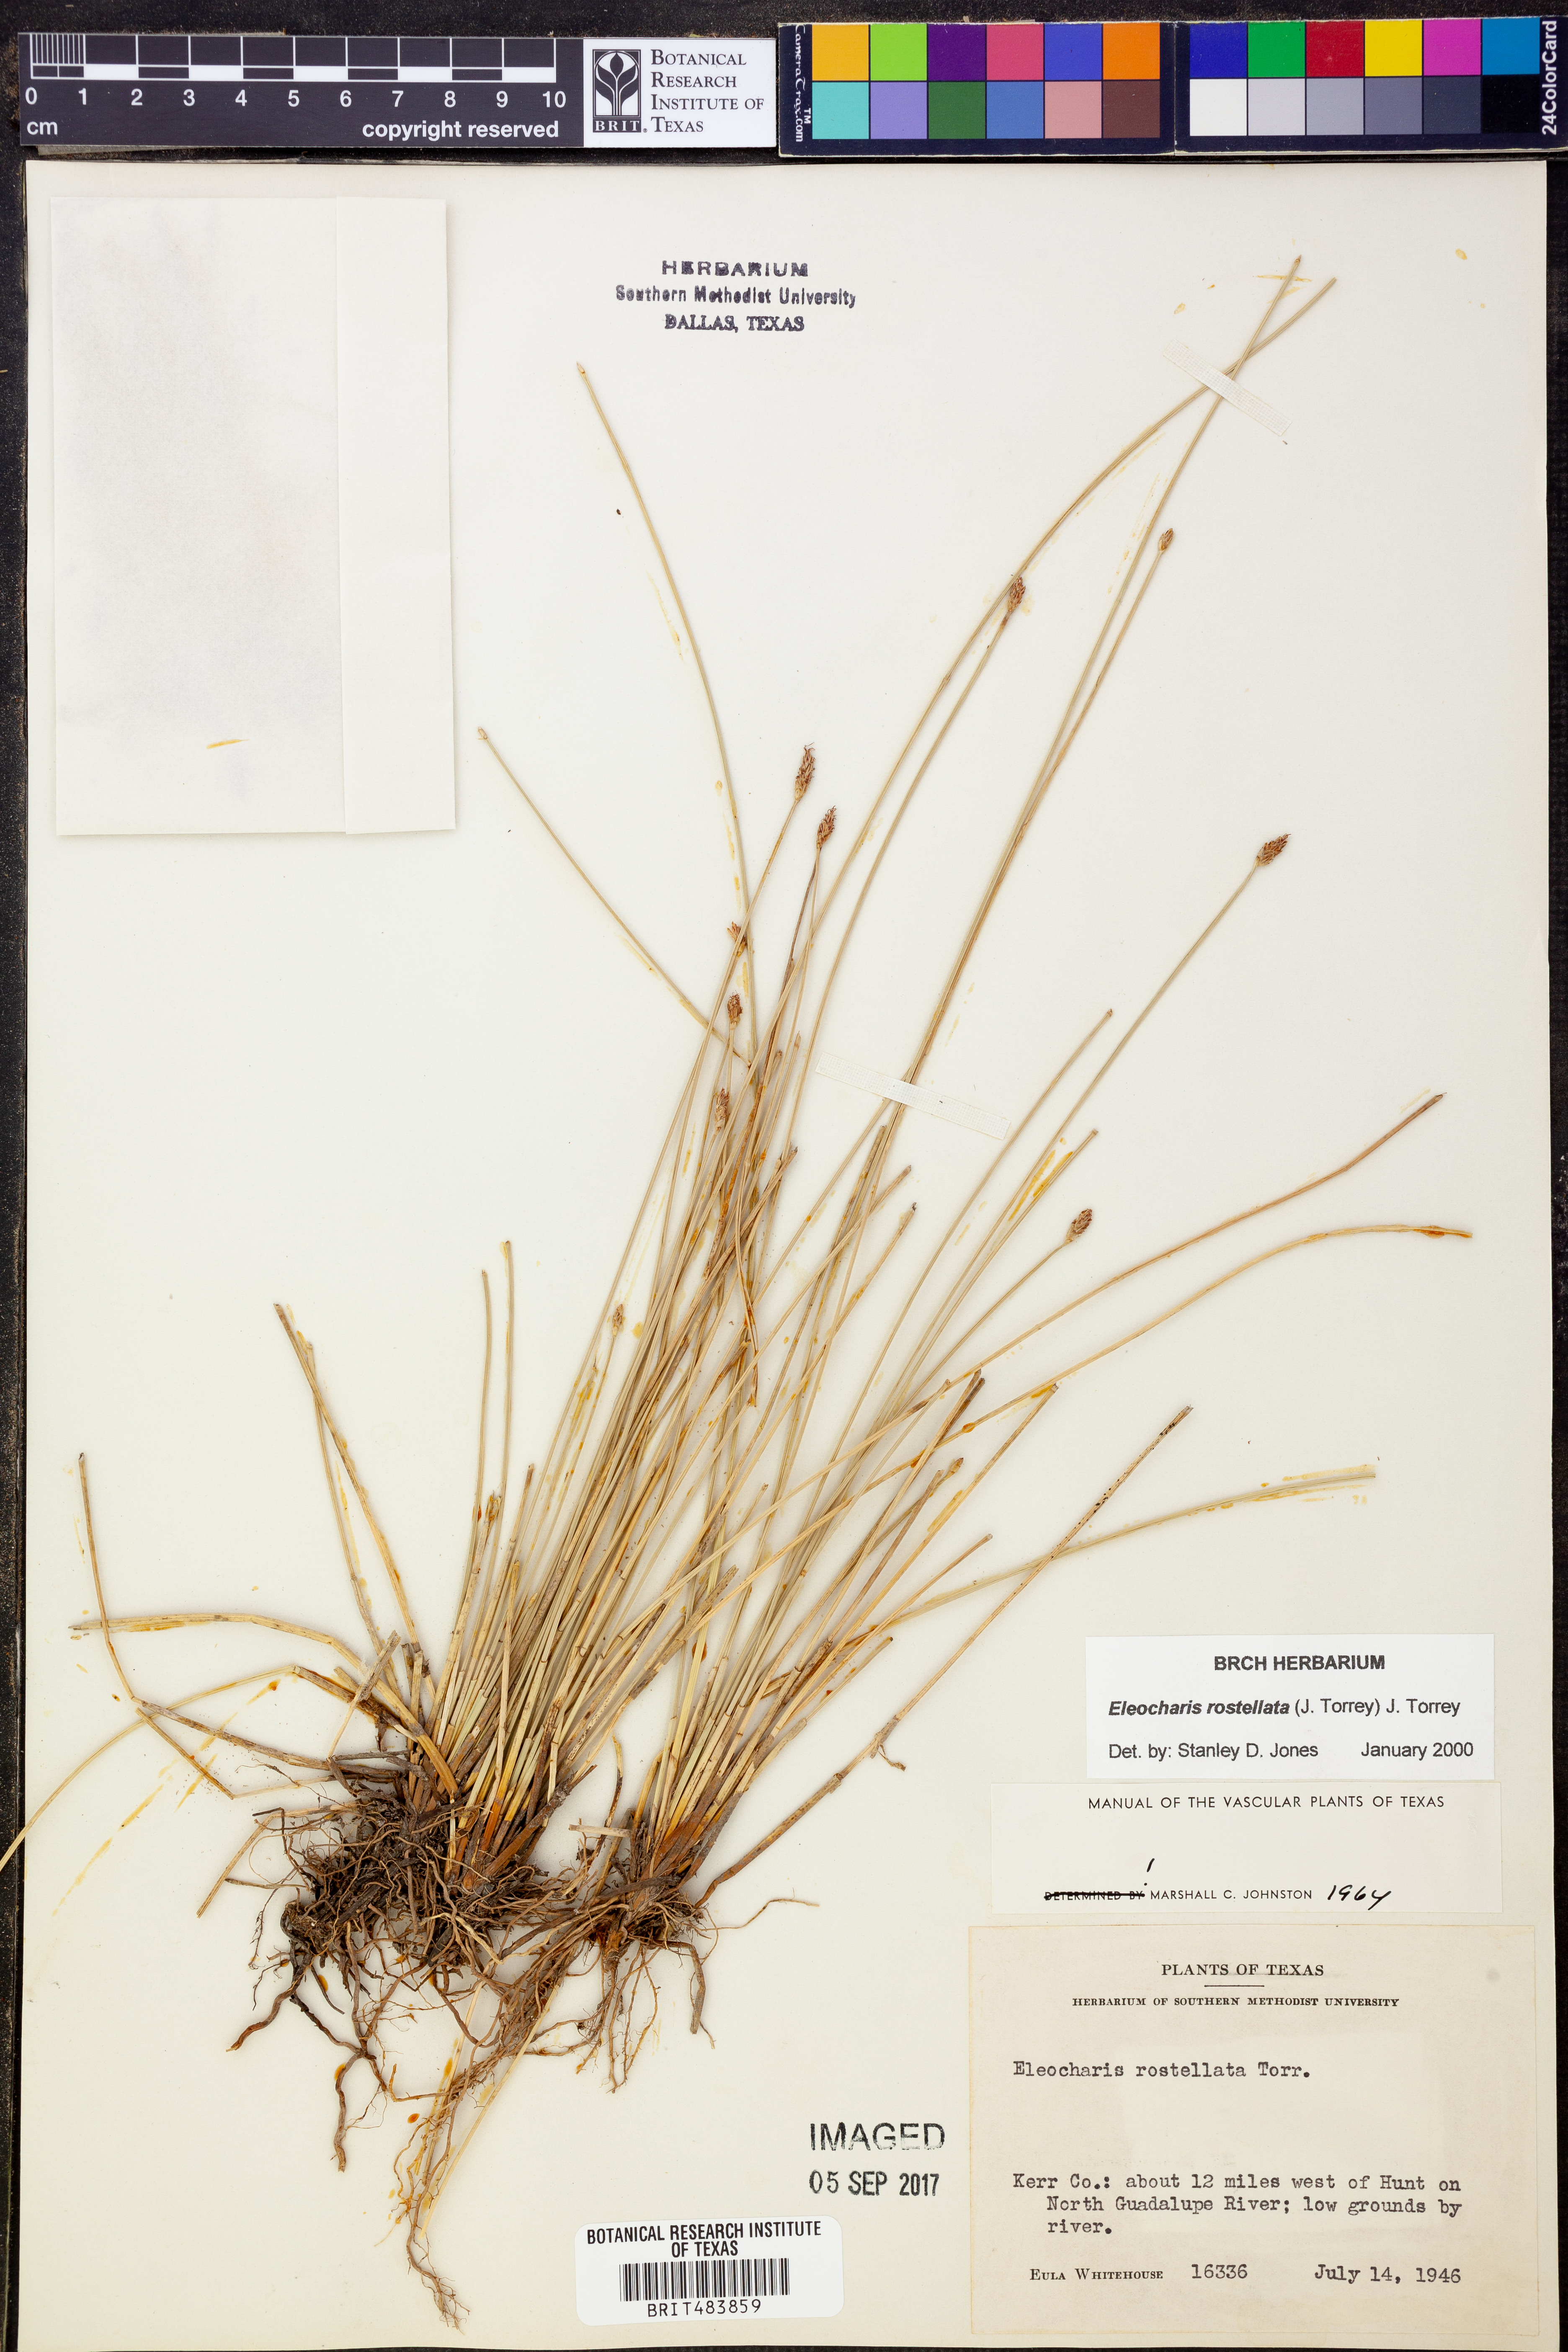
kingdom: Plantae
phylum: Tracheophyta
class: Liliopsida
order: Poales
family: Cyperaceae
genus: Eleocharis
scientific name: Eleocharis rostellata
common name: Walking sedge
